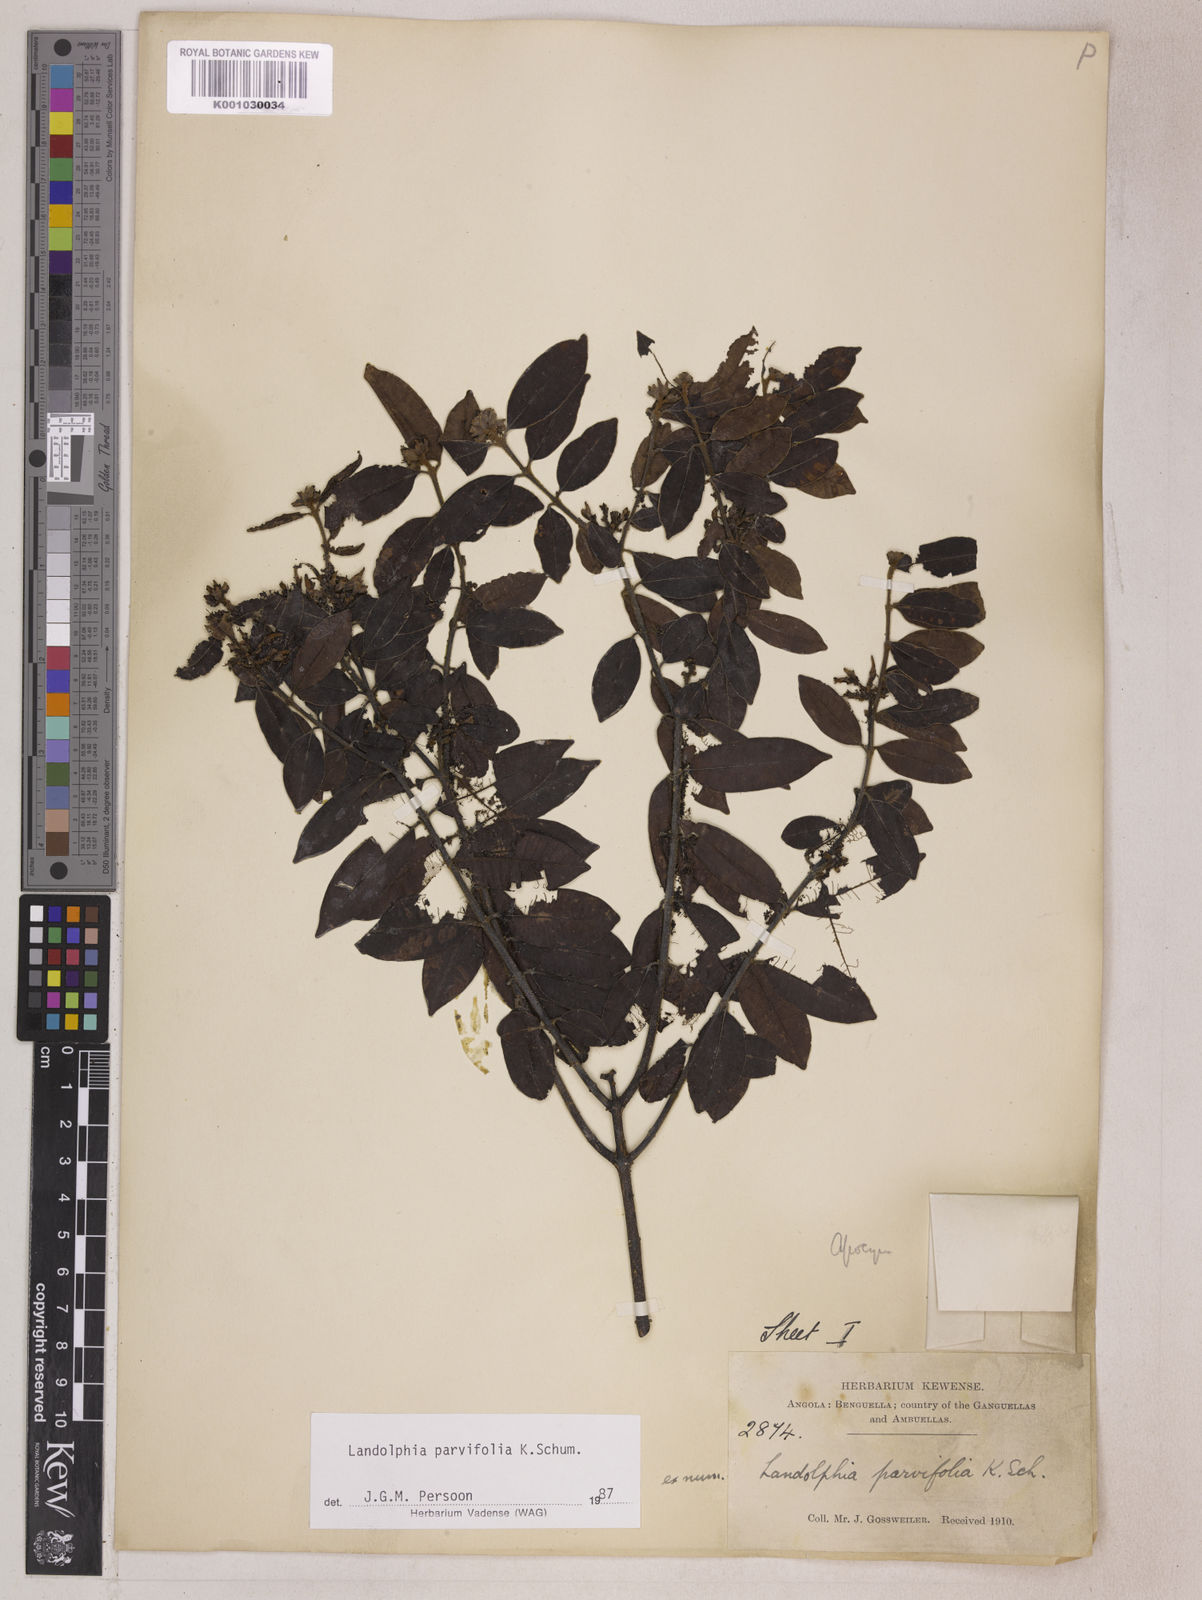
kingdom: Plantae
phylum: Tracheophyta
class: Magnoliopsida
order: Gentianales
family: Apocynaceae
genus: Landolphia
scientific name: Landolphia parvifolia
